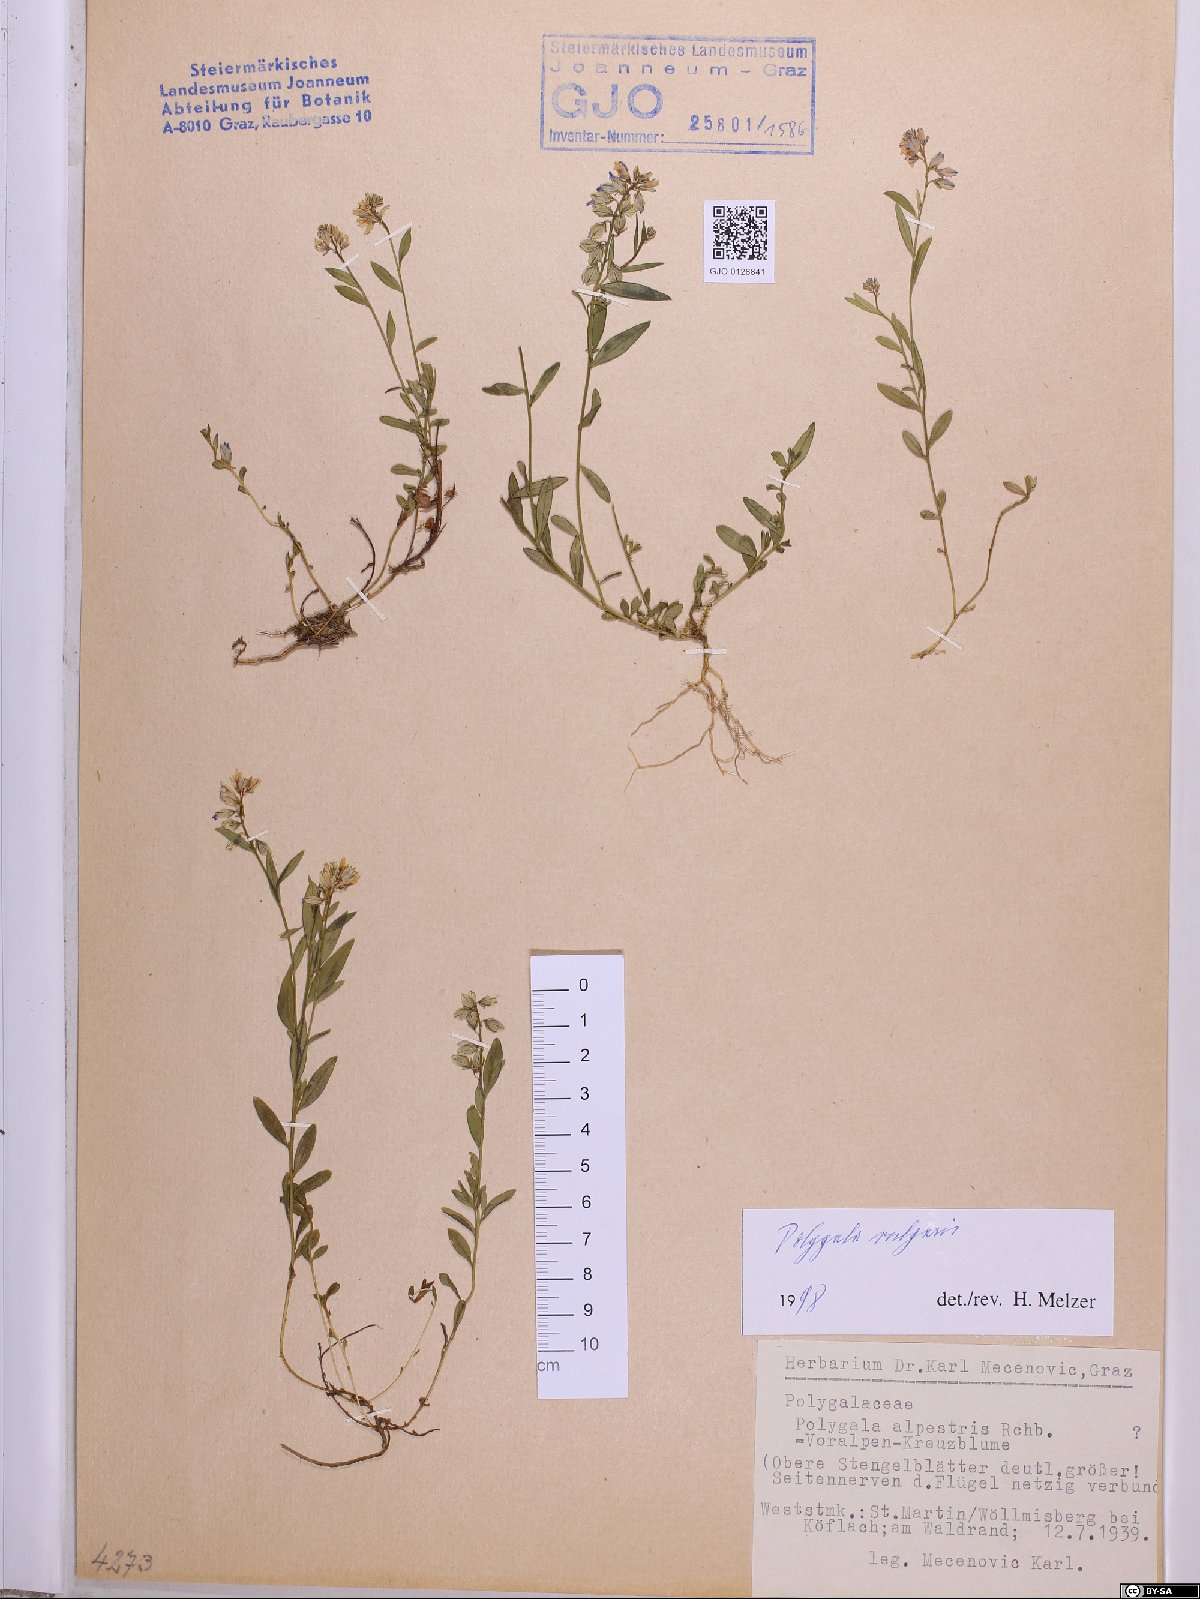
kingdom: Plantae
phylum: Tracheophyta
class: Magnoliopsida
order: Fabales
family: Polygalaceae
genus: Polygala
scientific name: Polygala vulgaris
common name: Common milkwort
